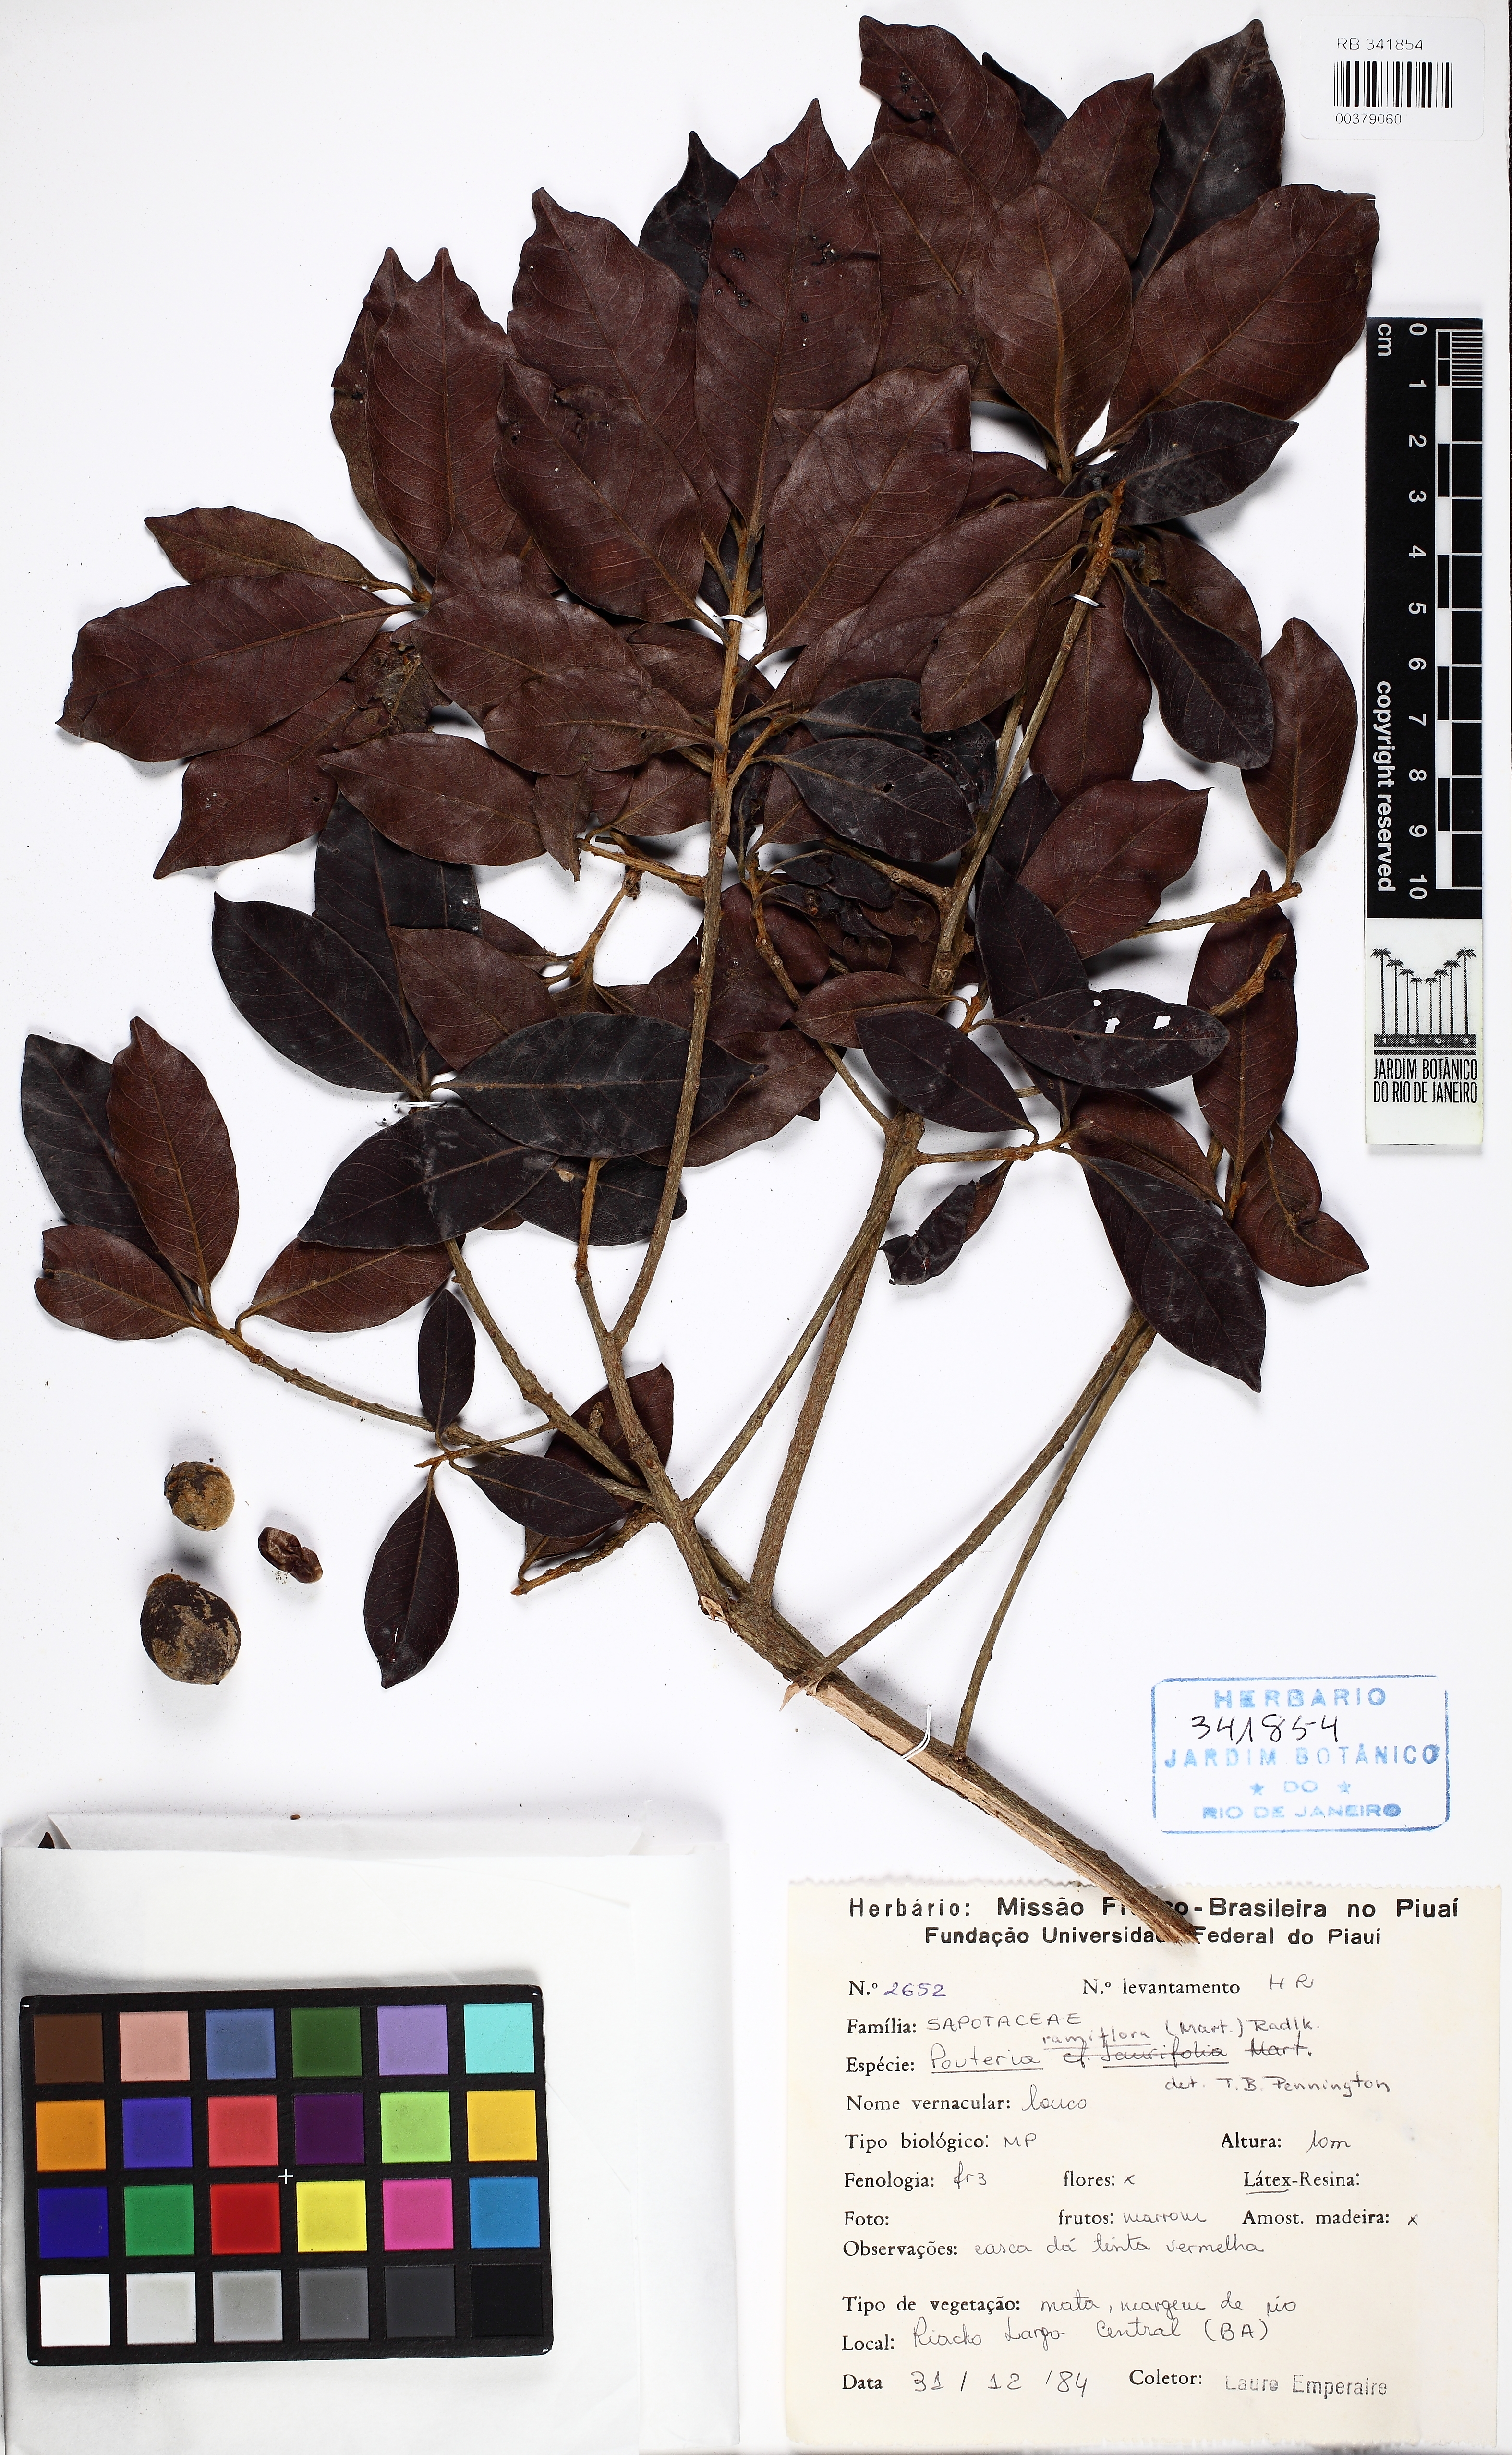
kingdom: Plantae
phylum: Tracheophyta
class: Magnoliopsida
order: Ericales
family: Sapotaceae
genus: Pouteria
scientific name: Pouteria ramiflora
